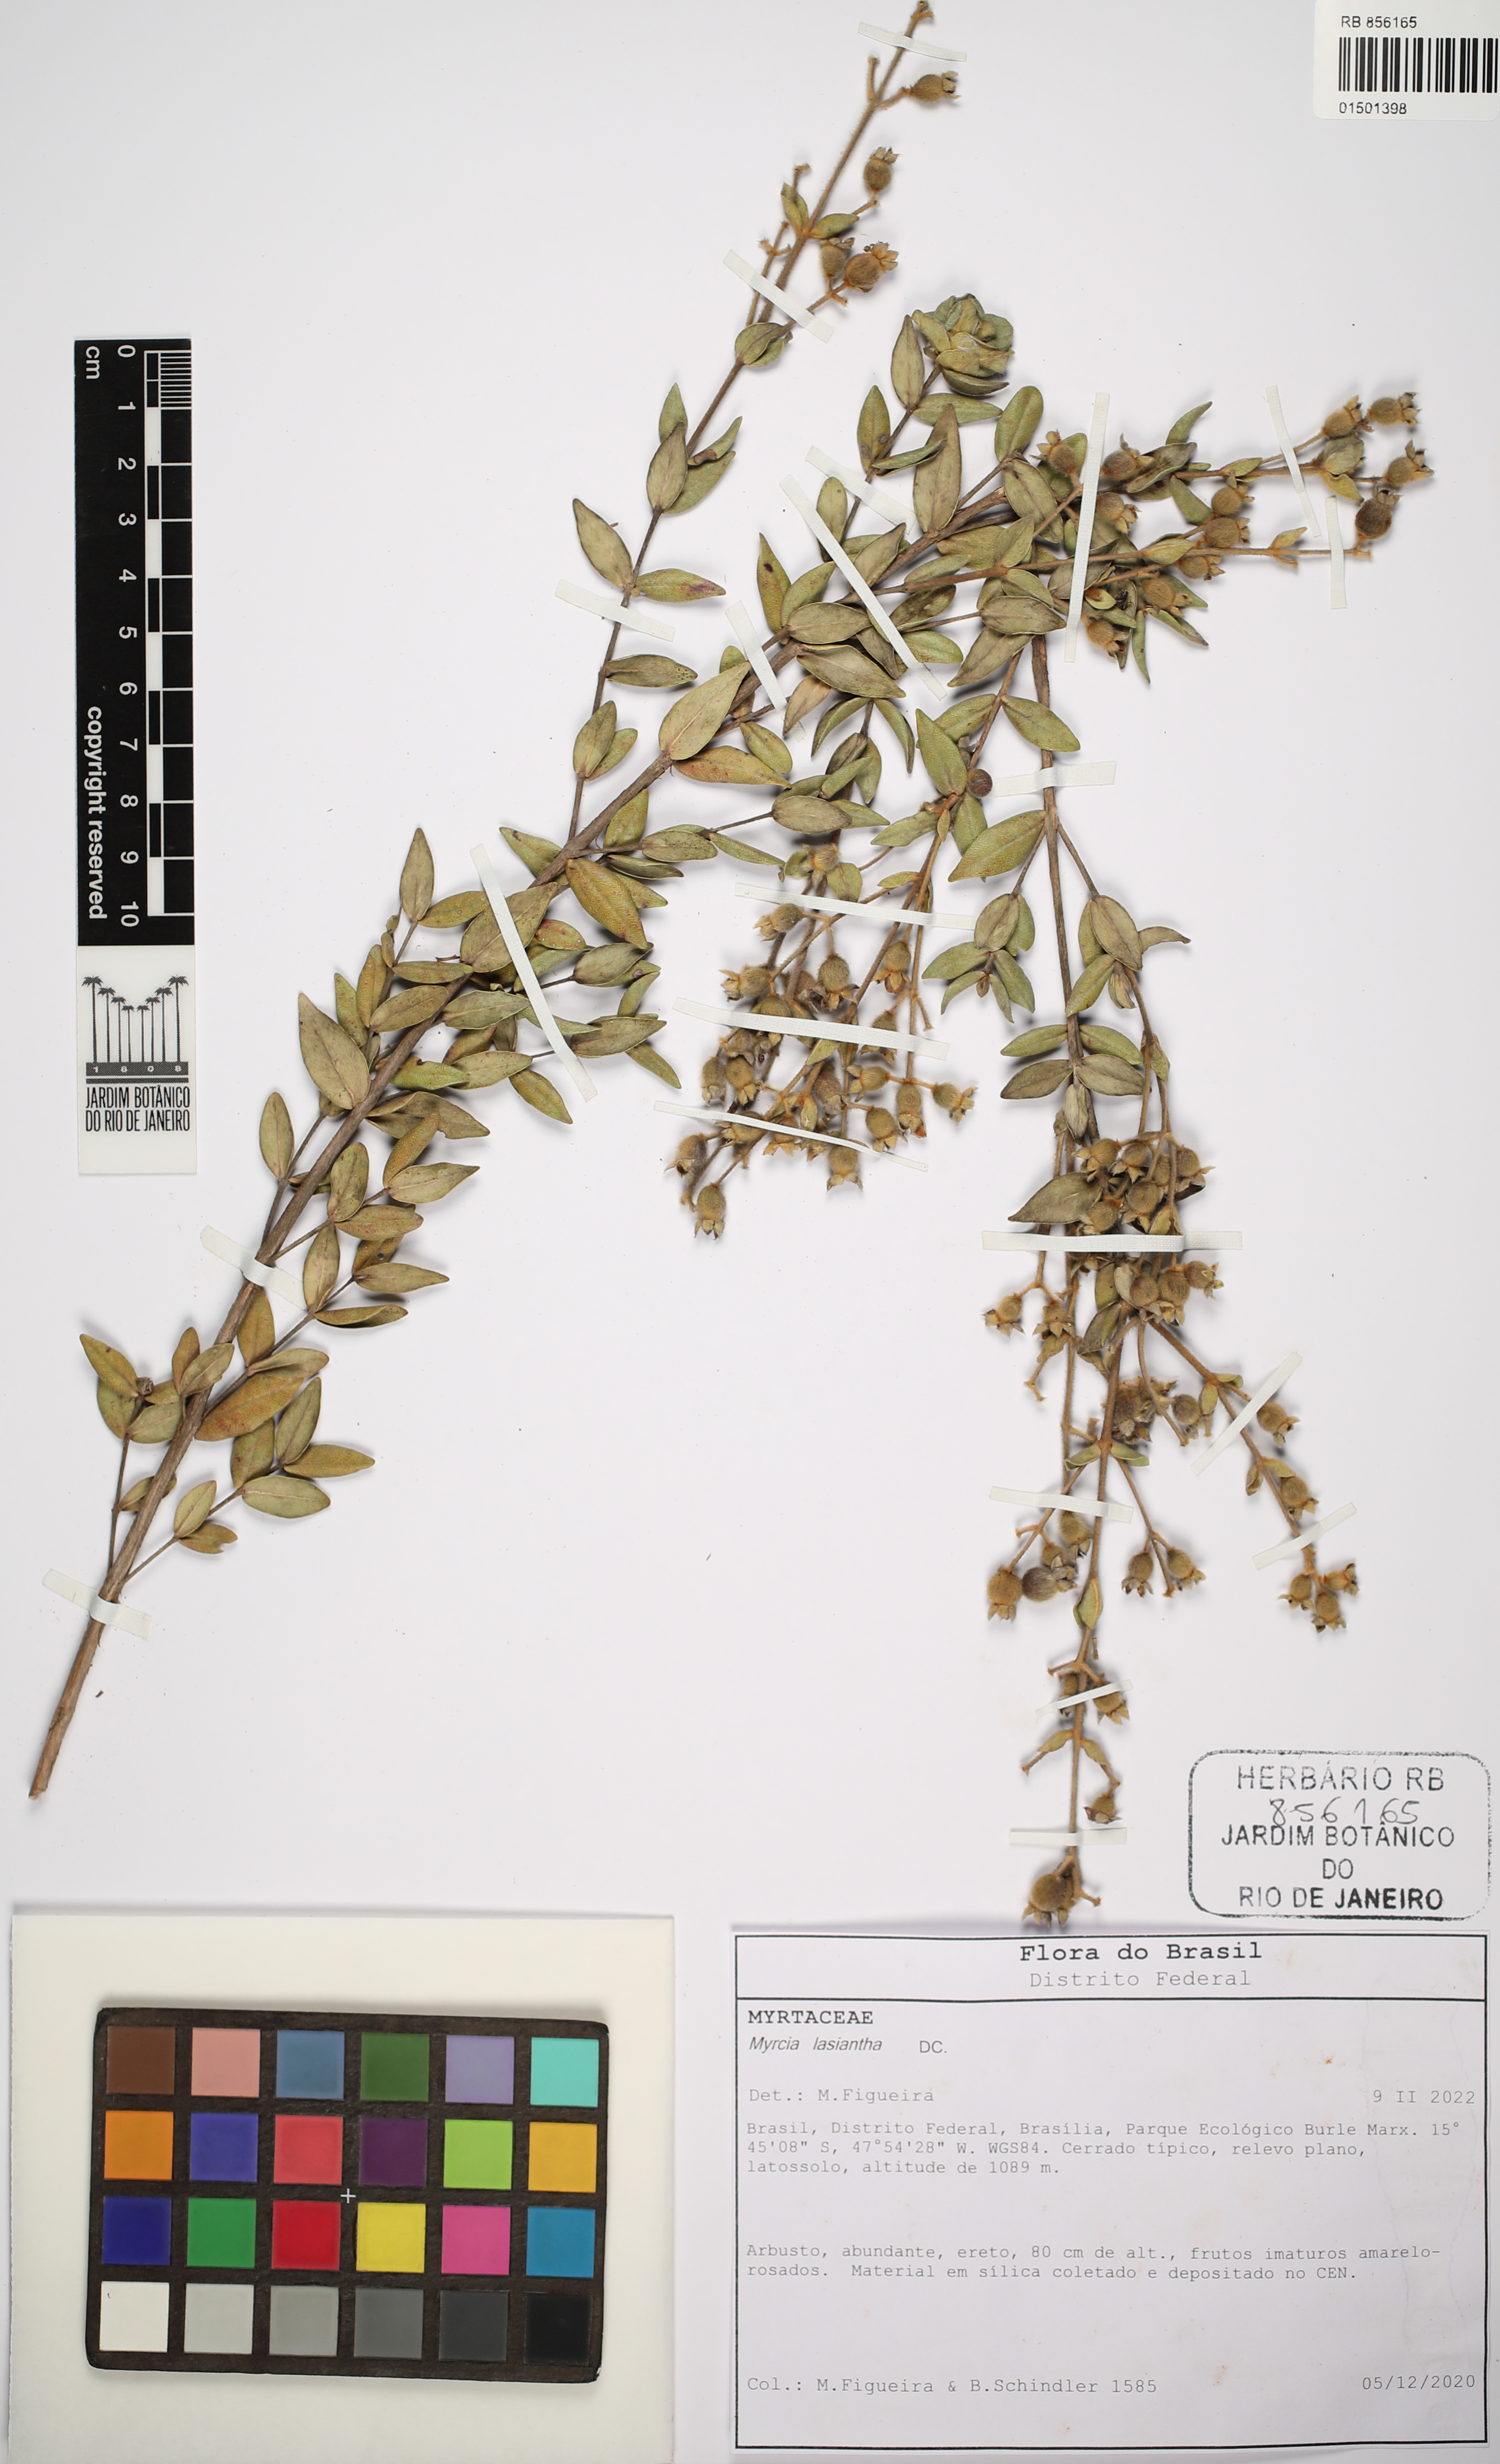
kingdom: Plantae
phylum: Tracheophyta
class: Magnoliopsida
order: Myrtales
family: Myrtaceae
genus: Myrcia
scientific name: Myrcia lasiantha
